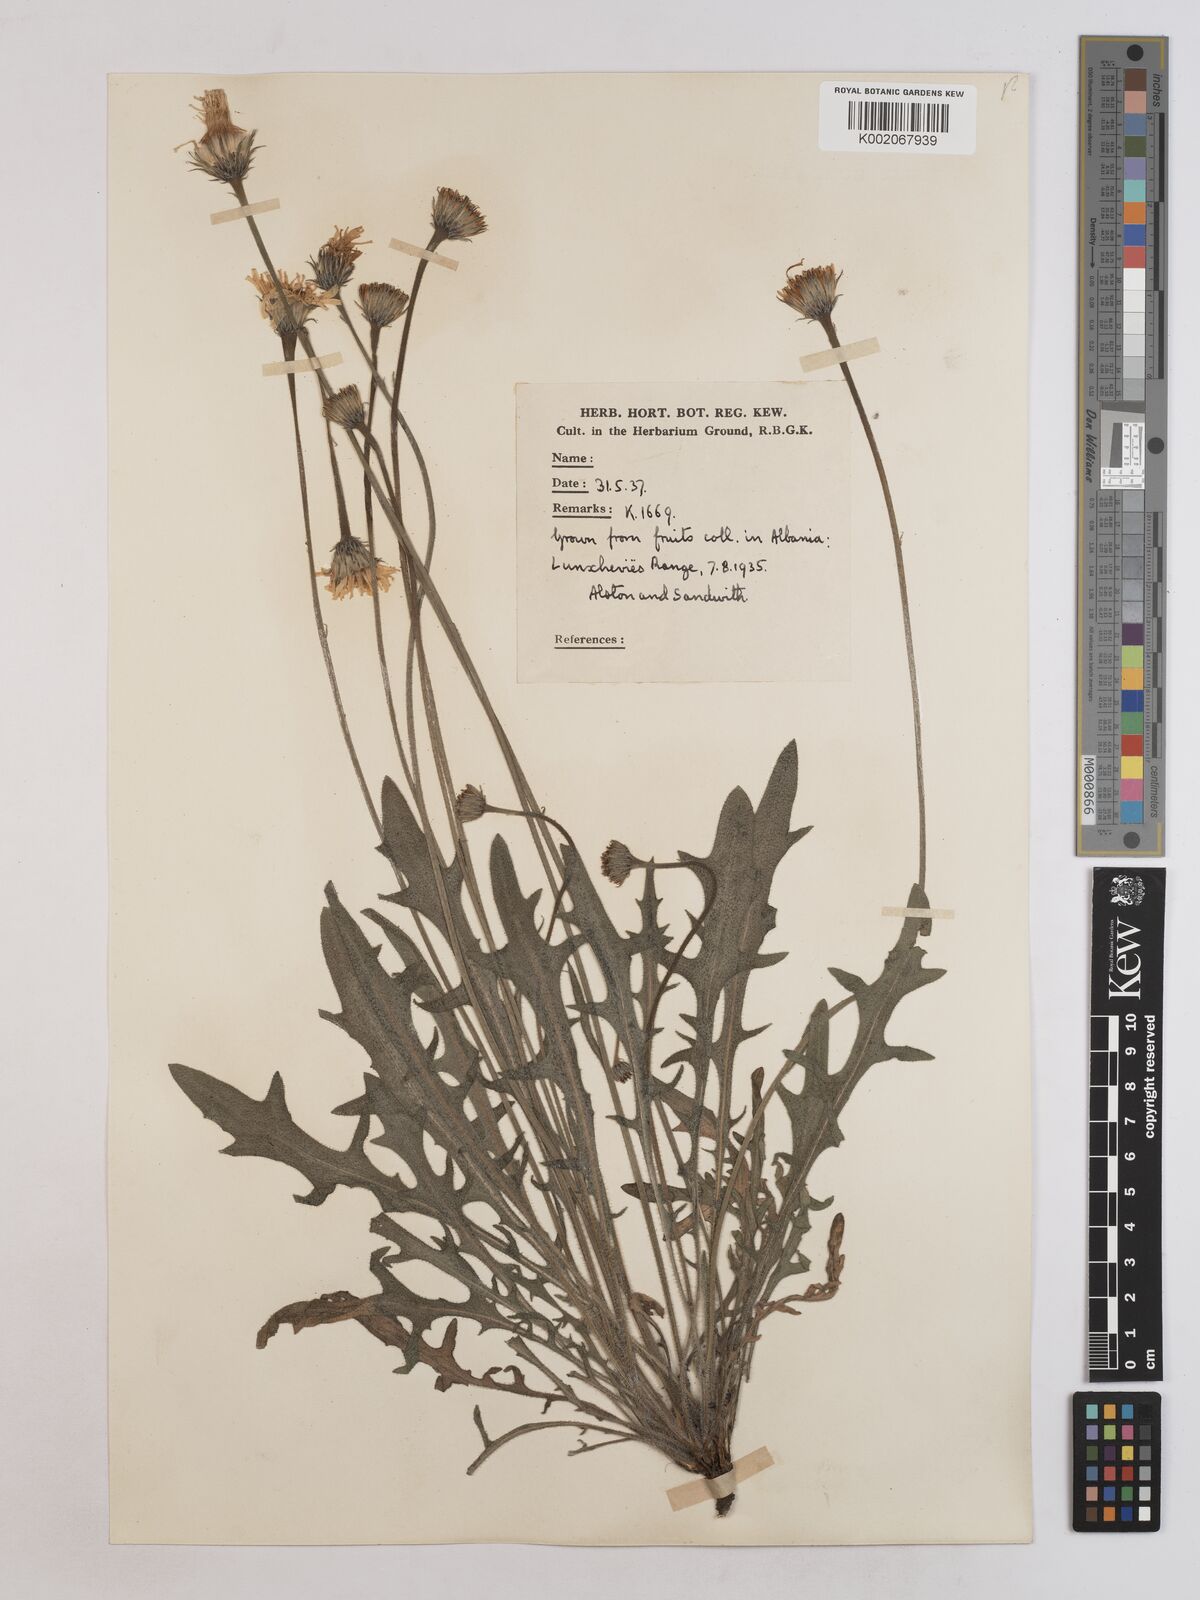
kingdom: Plantae
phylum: Tracheophyta
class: Magnoliopsida
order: Asterales
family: Asteraceae
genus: Leontodon
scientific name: Leontodon crispus
